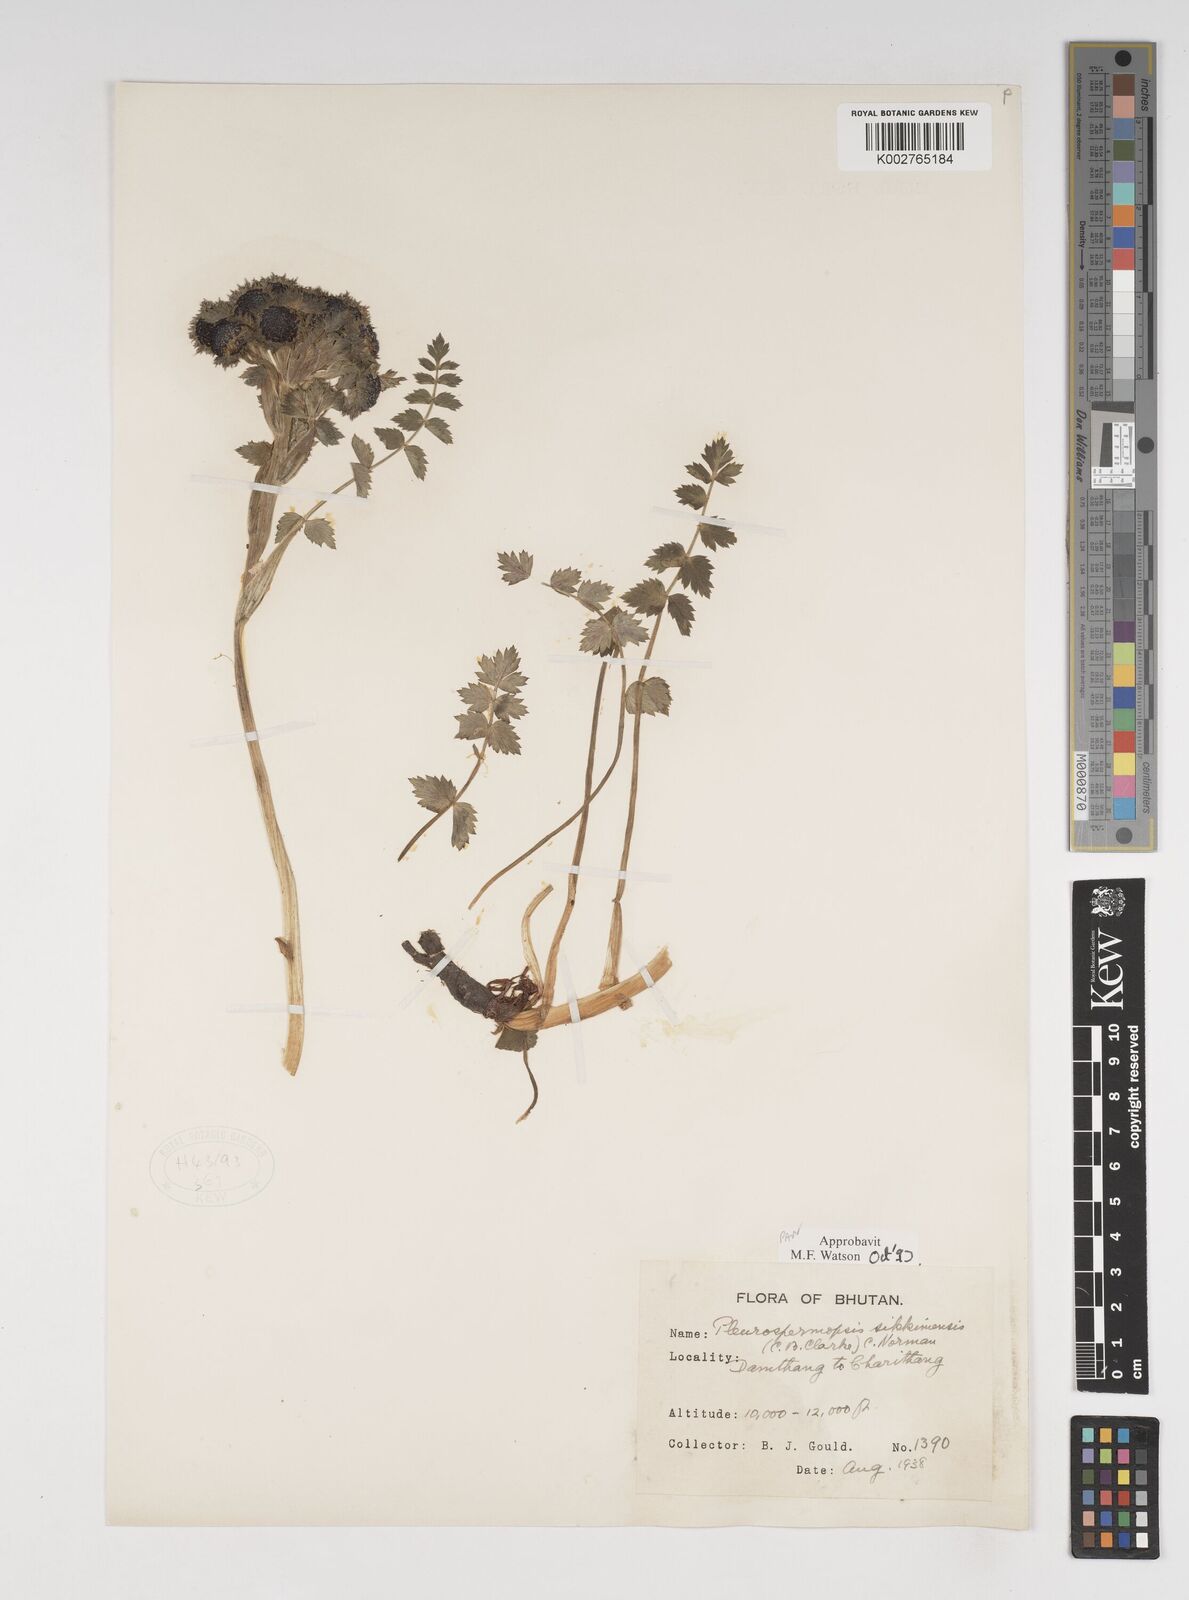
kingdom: Plantae
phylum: Tracheophyta
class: Magnoliopsida
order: Apiales
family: Apiaceae
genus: Pleurospermopsis
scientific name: Pleurospermopsis sikkimensis
